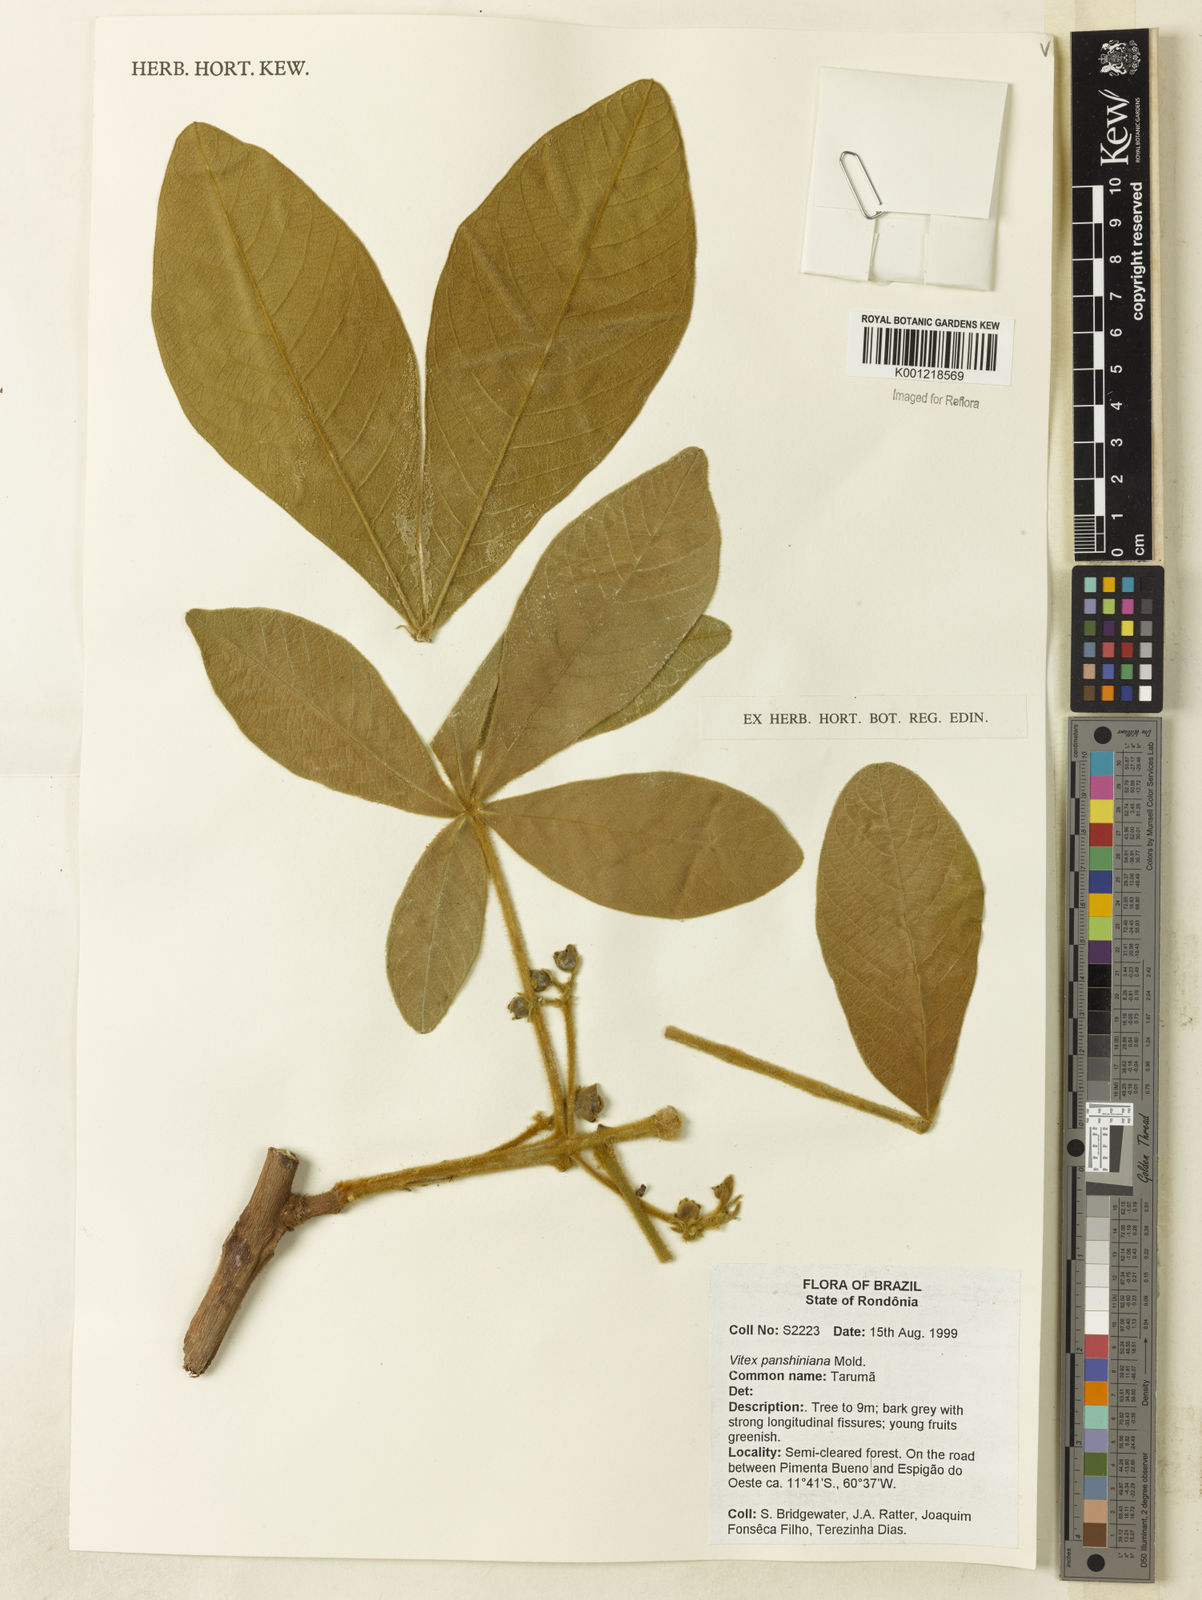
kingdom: Plantae
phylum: Tracheophyta
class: Magnoliopsida
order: Lamiales
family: Lamiaceae
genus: Vitex
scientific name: Vitex panshiniana
